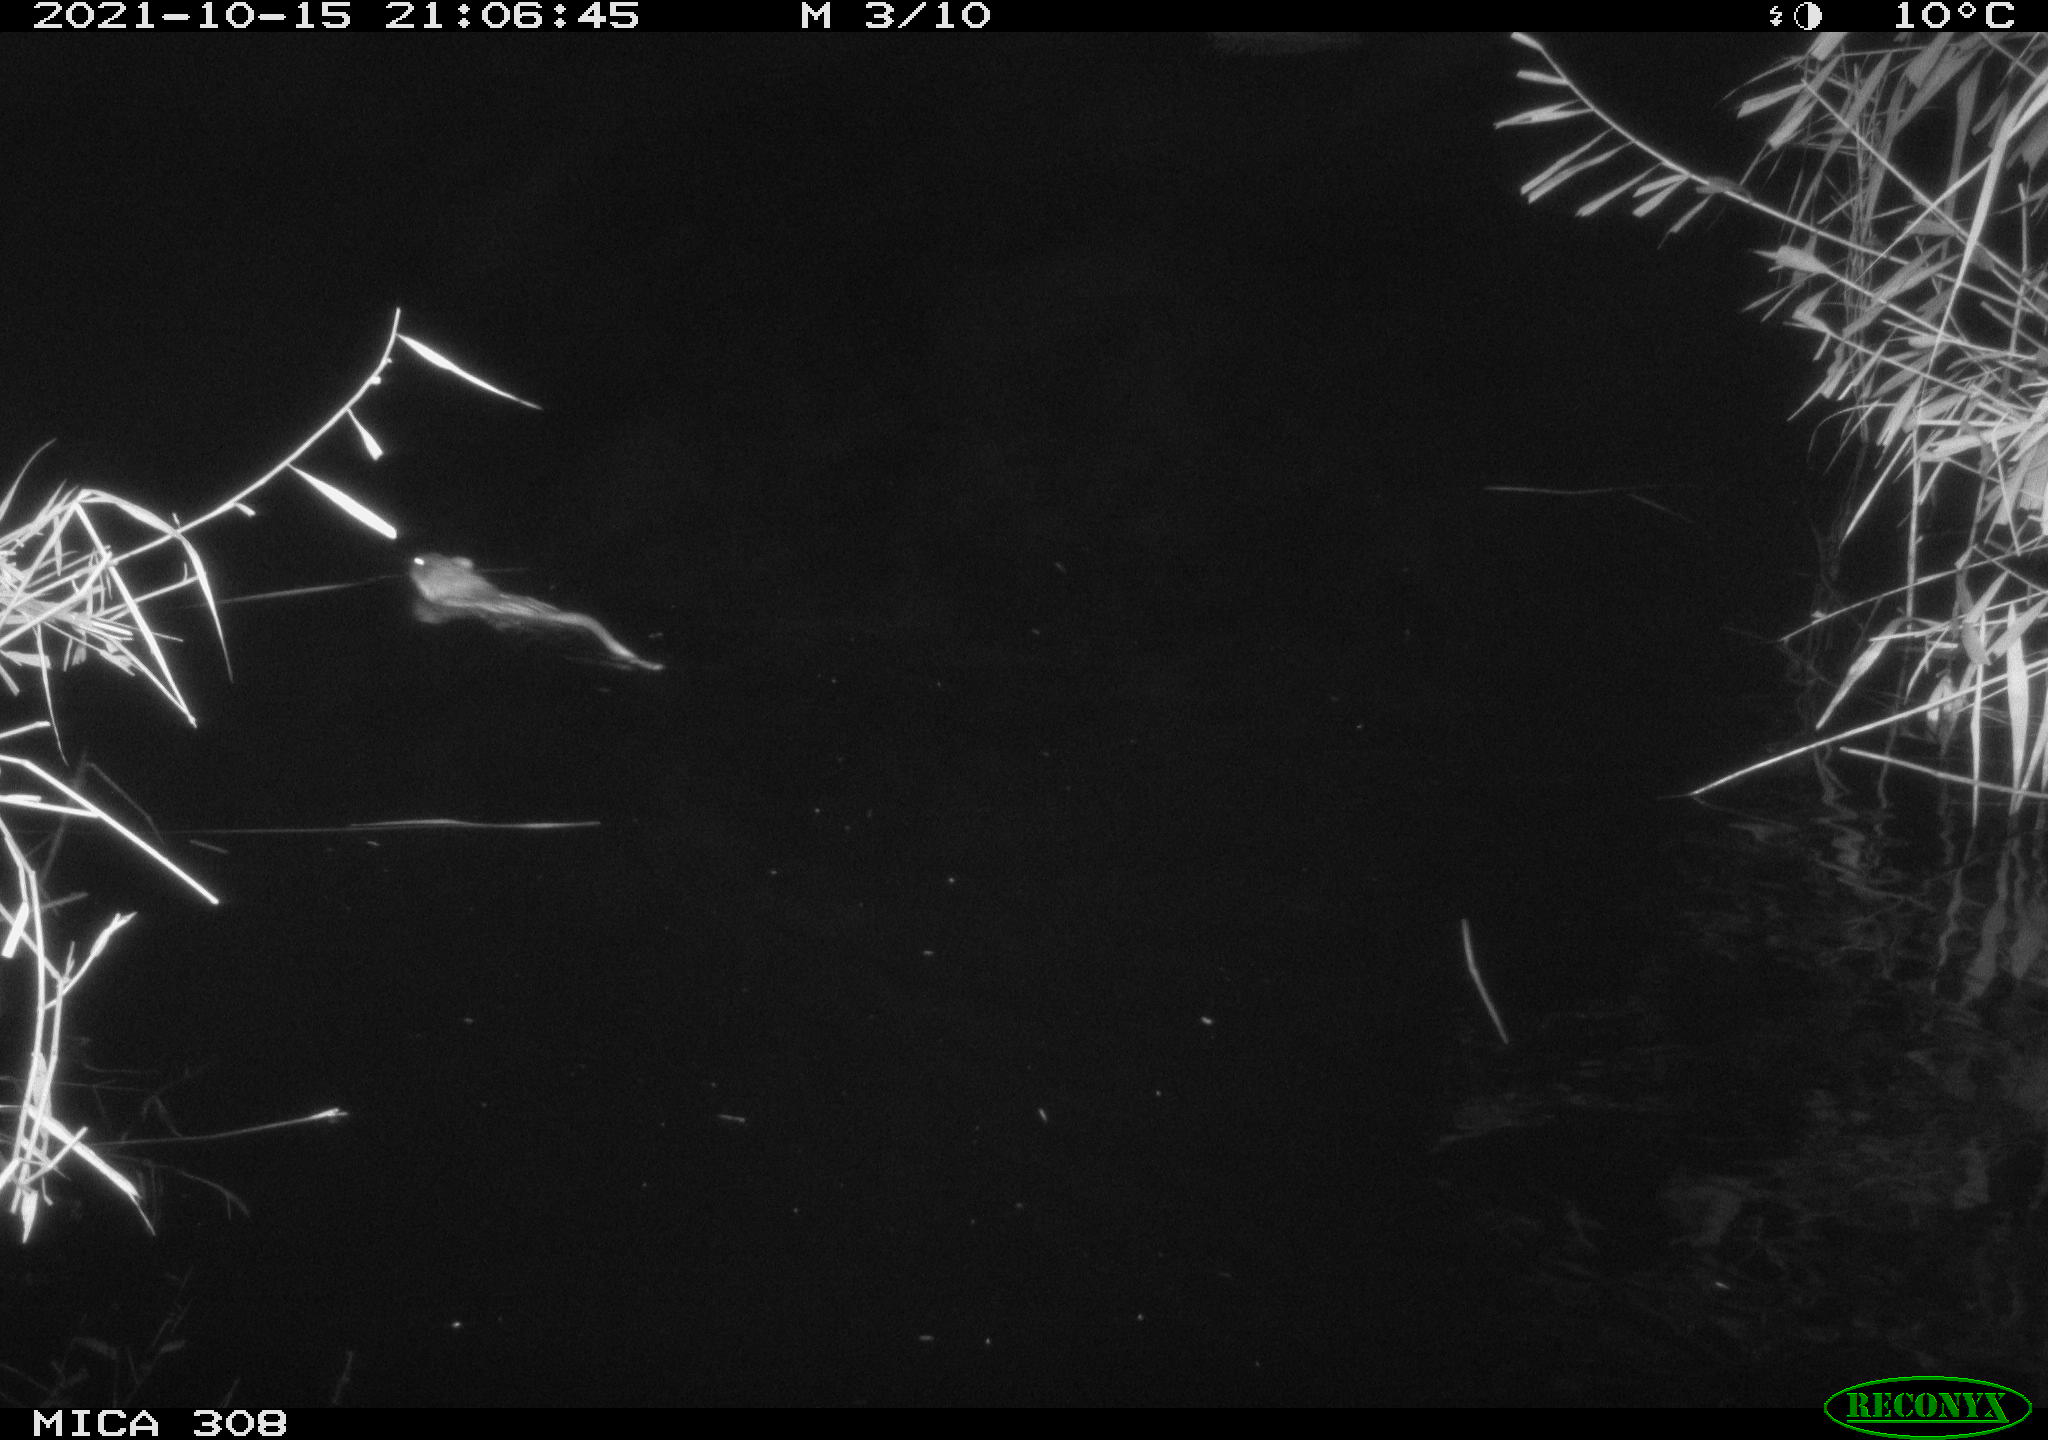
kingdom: Animalia
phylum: Chordata
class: Mammalia
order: Rodentia
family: Cricetidae
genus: Ondatra
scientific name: Ondatra zibethicus
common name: Muskrat
